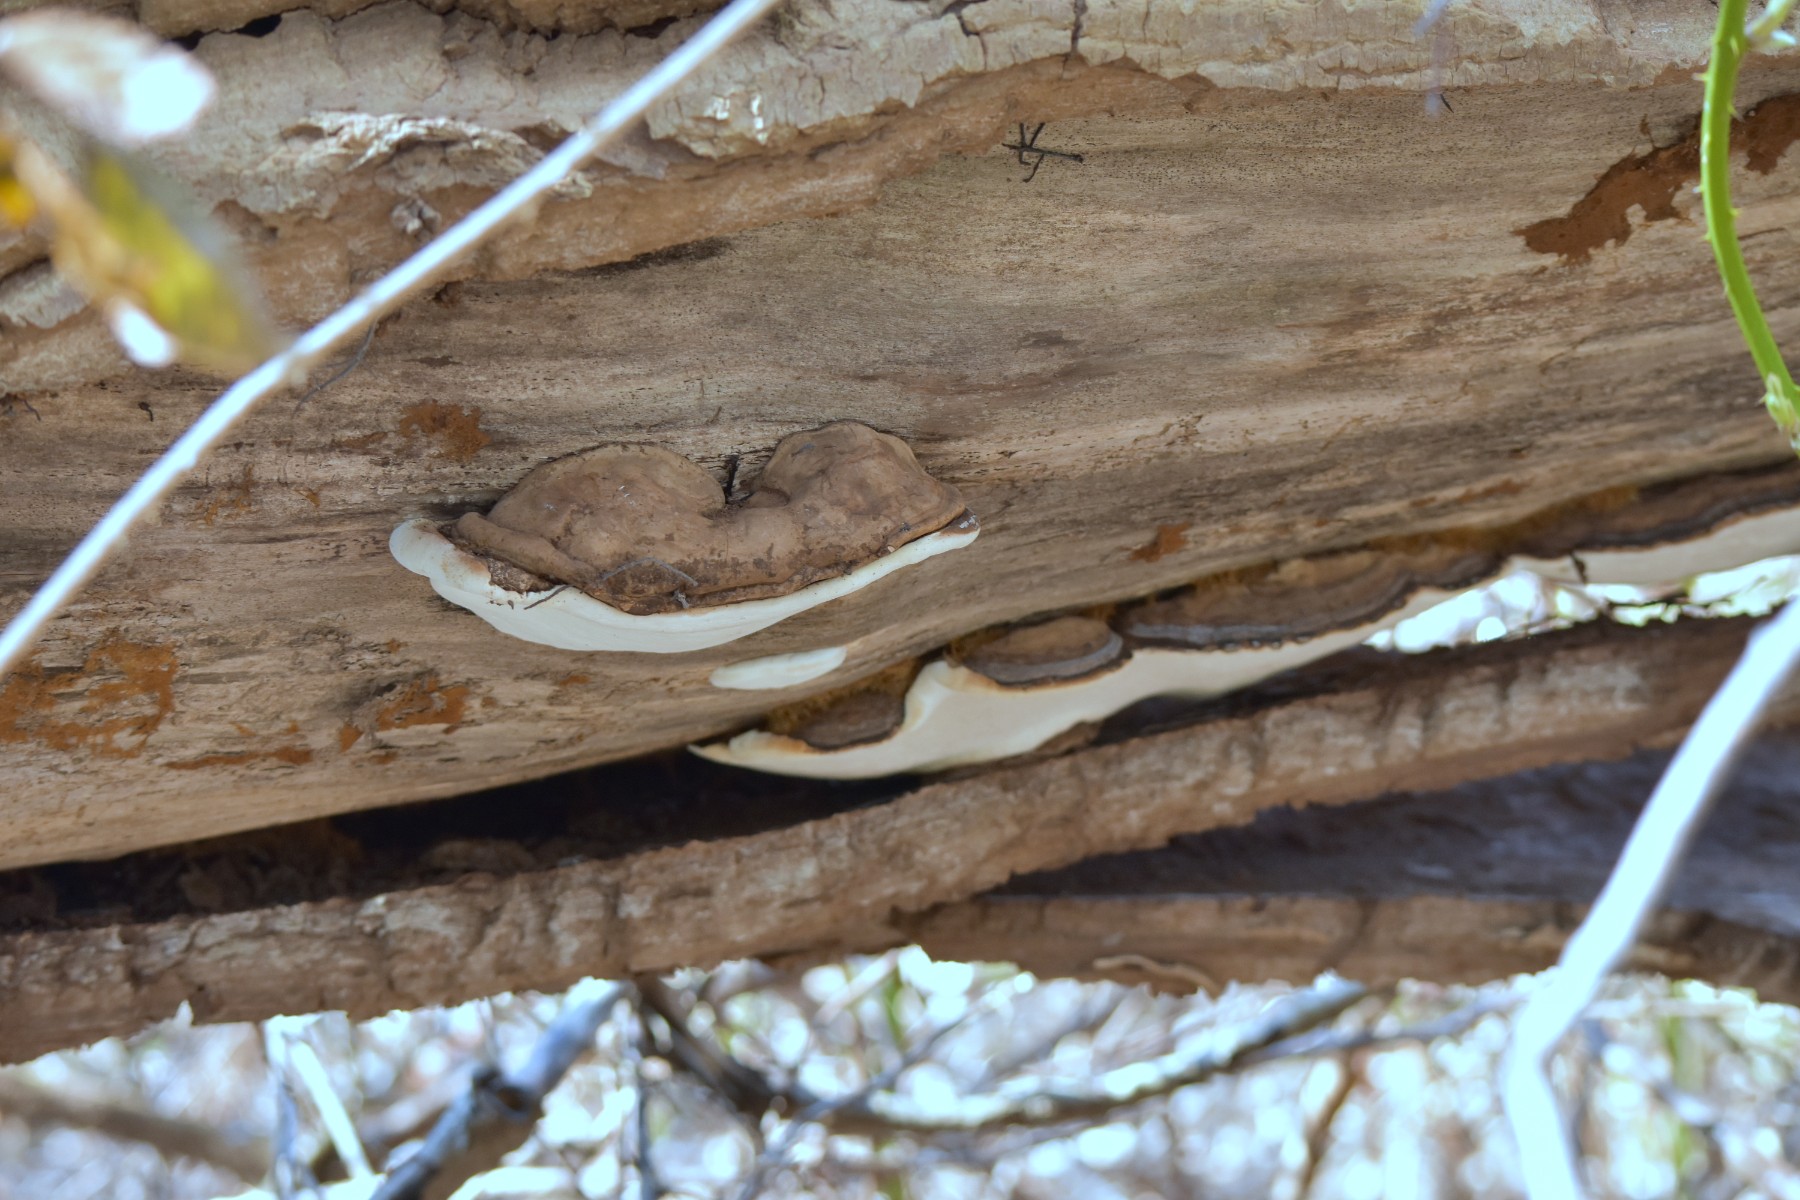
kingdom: Fungi
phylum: Basidiomycota
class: Agaricomycetes
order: Polyporales
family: Polyporaceae
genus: Ganoderma
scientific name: Ganoderma
